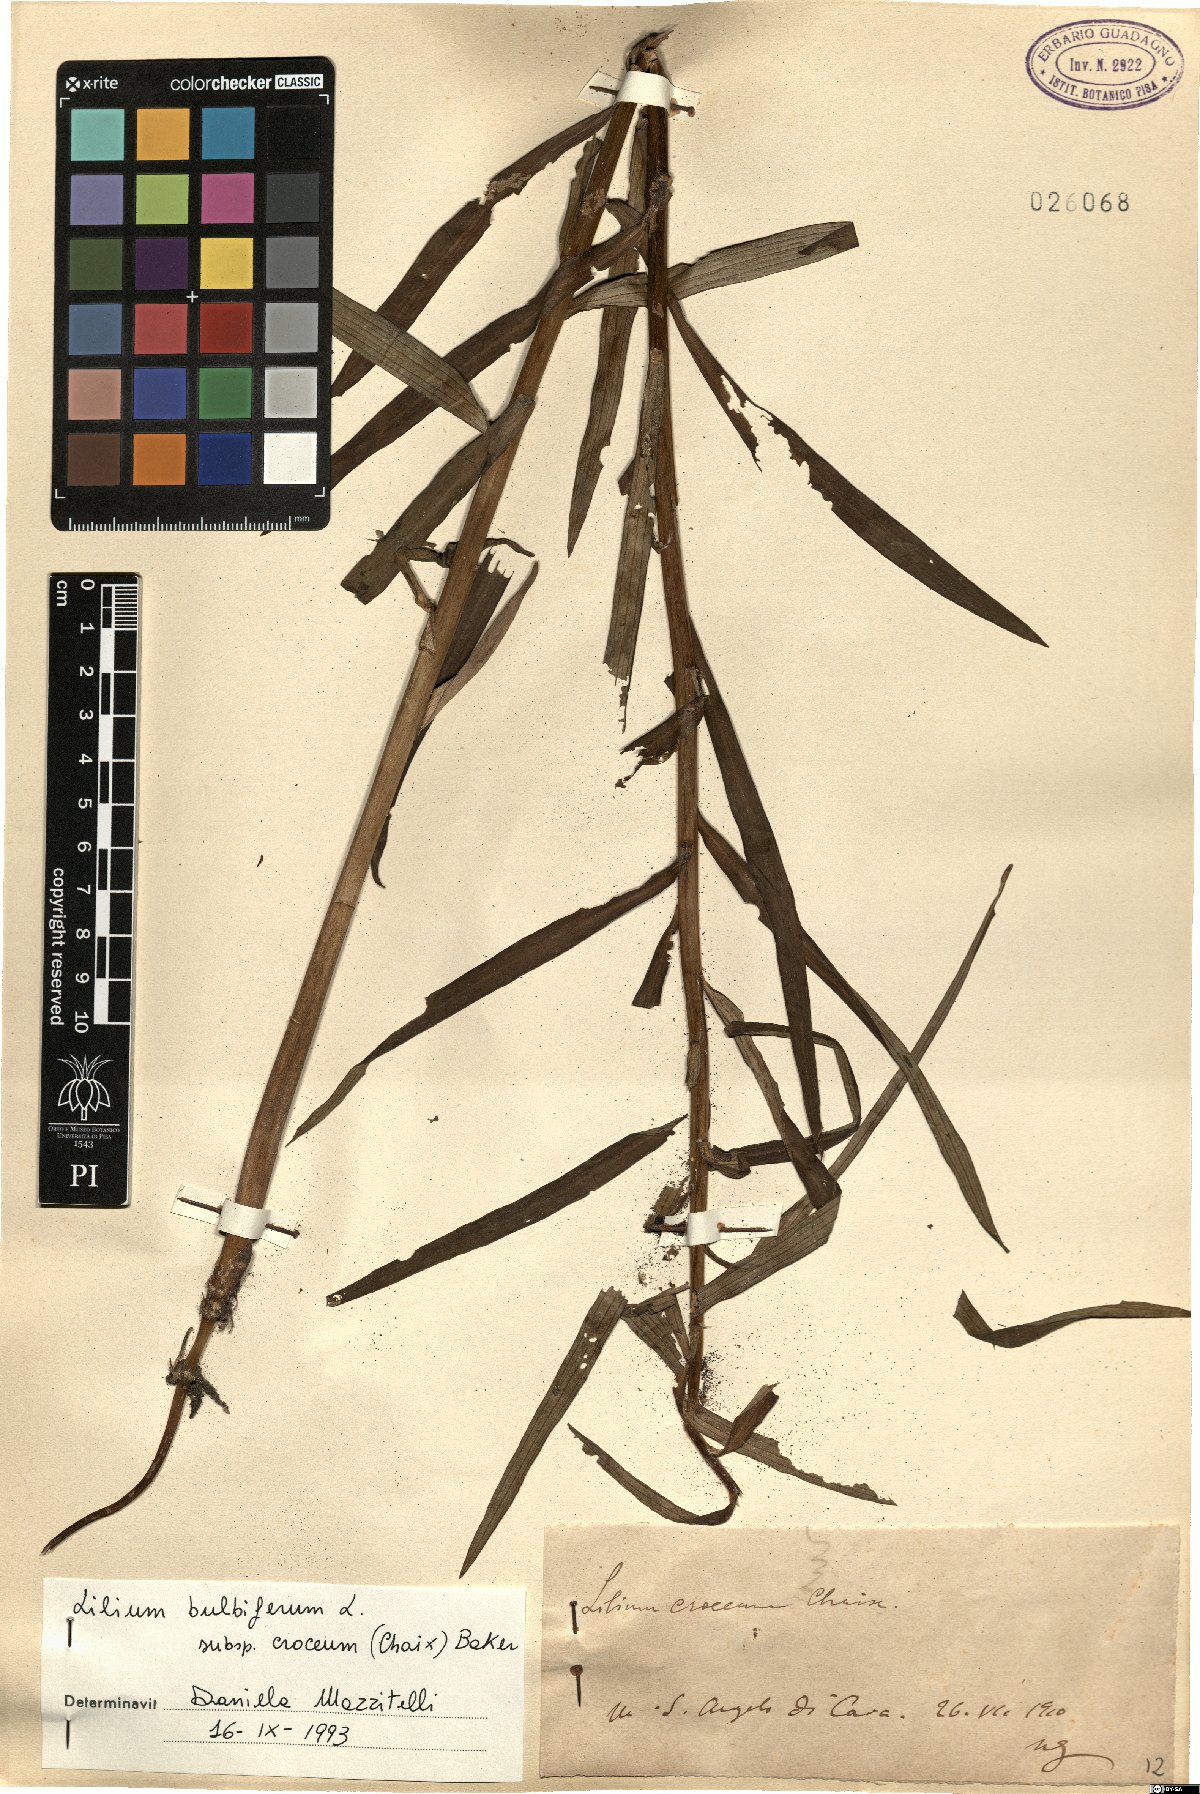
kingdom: Plantae
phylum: Tracheophyta
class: Liliopsida
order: Liliales
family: Liliaceae
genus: Lilium
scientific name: Lilium bulbiferum
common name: Orange lily
